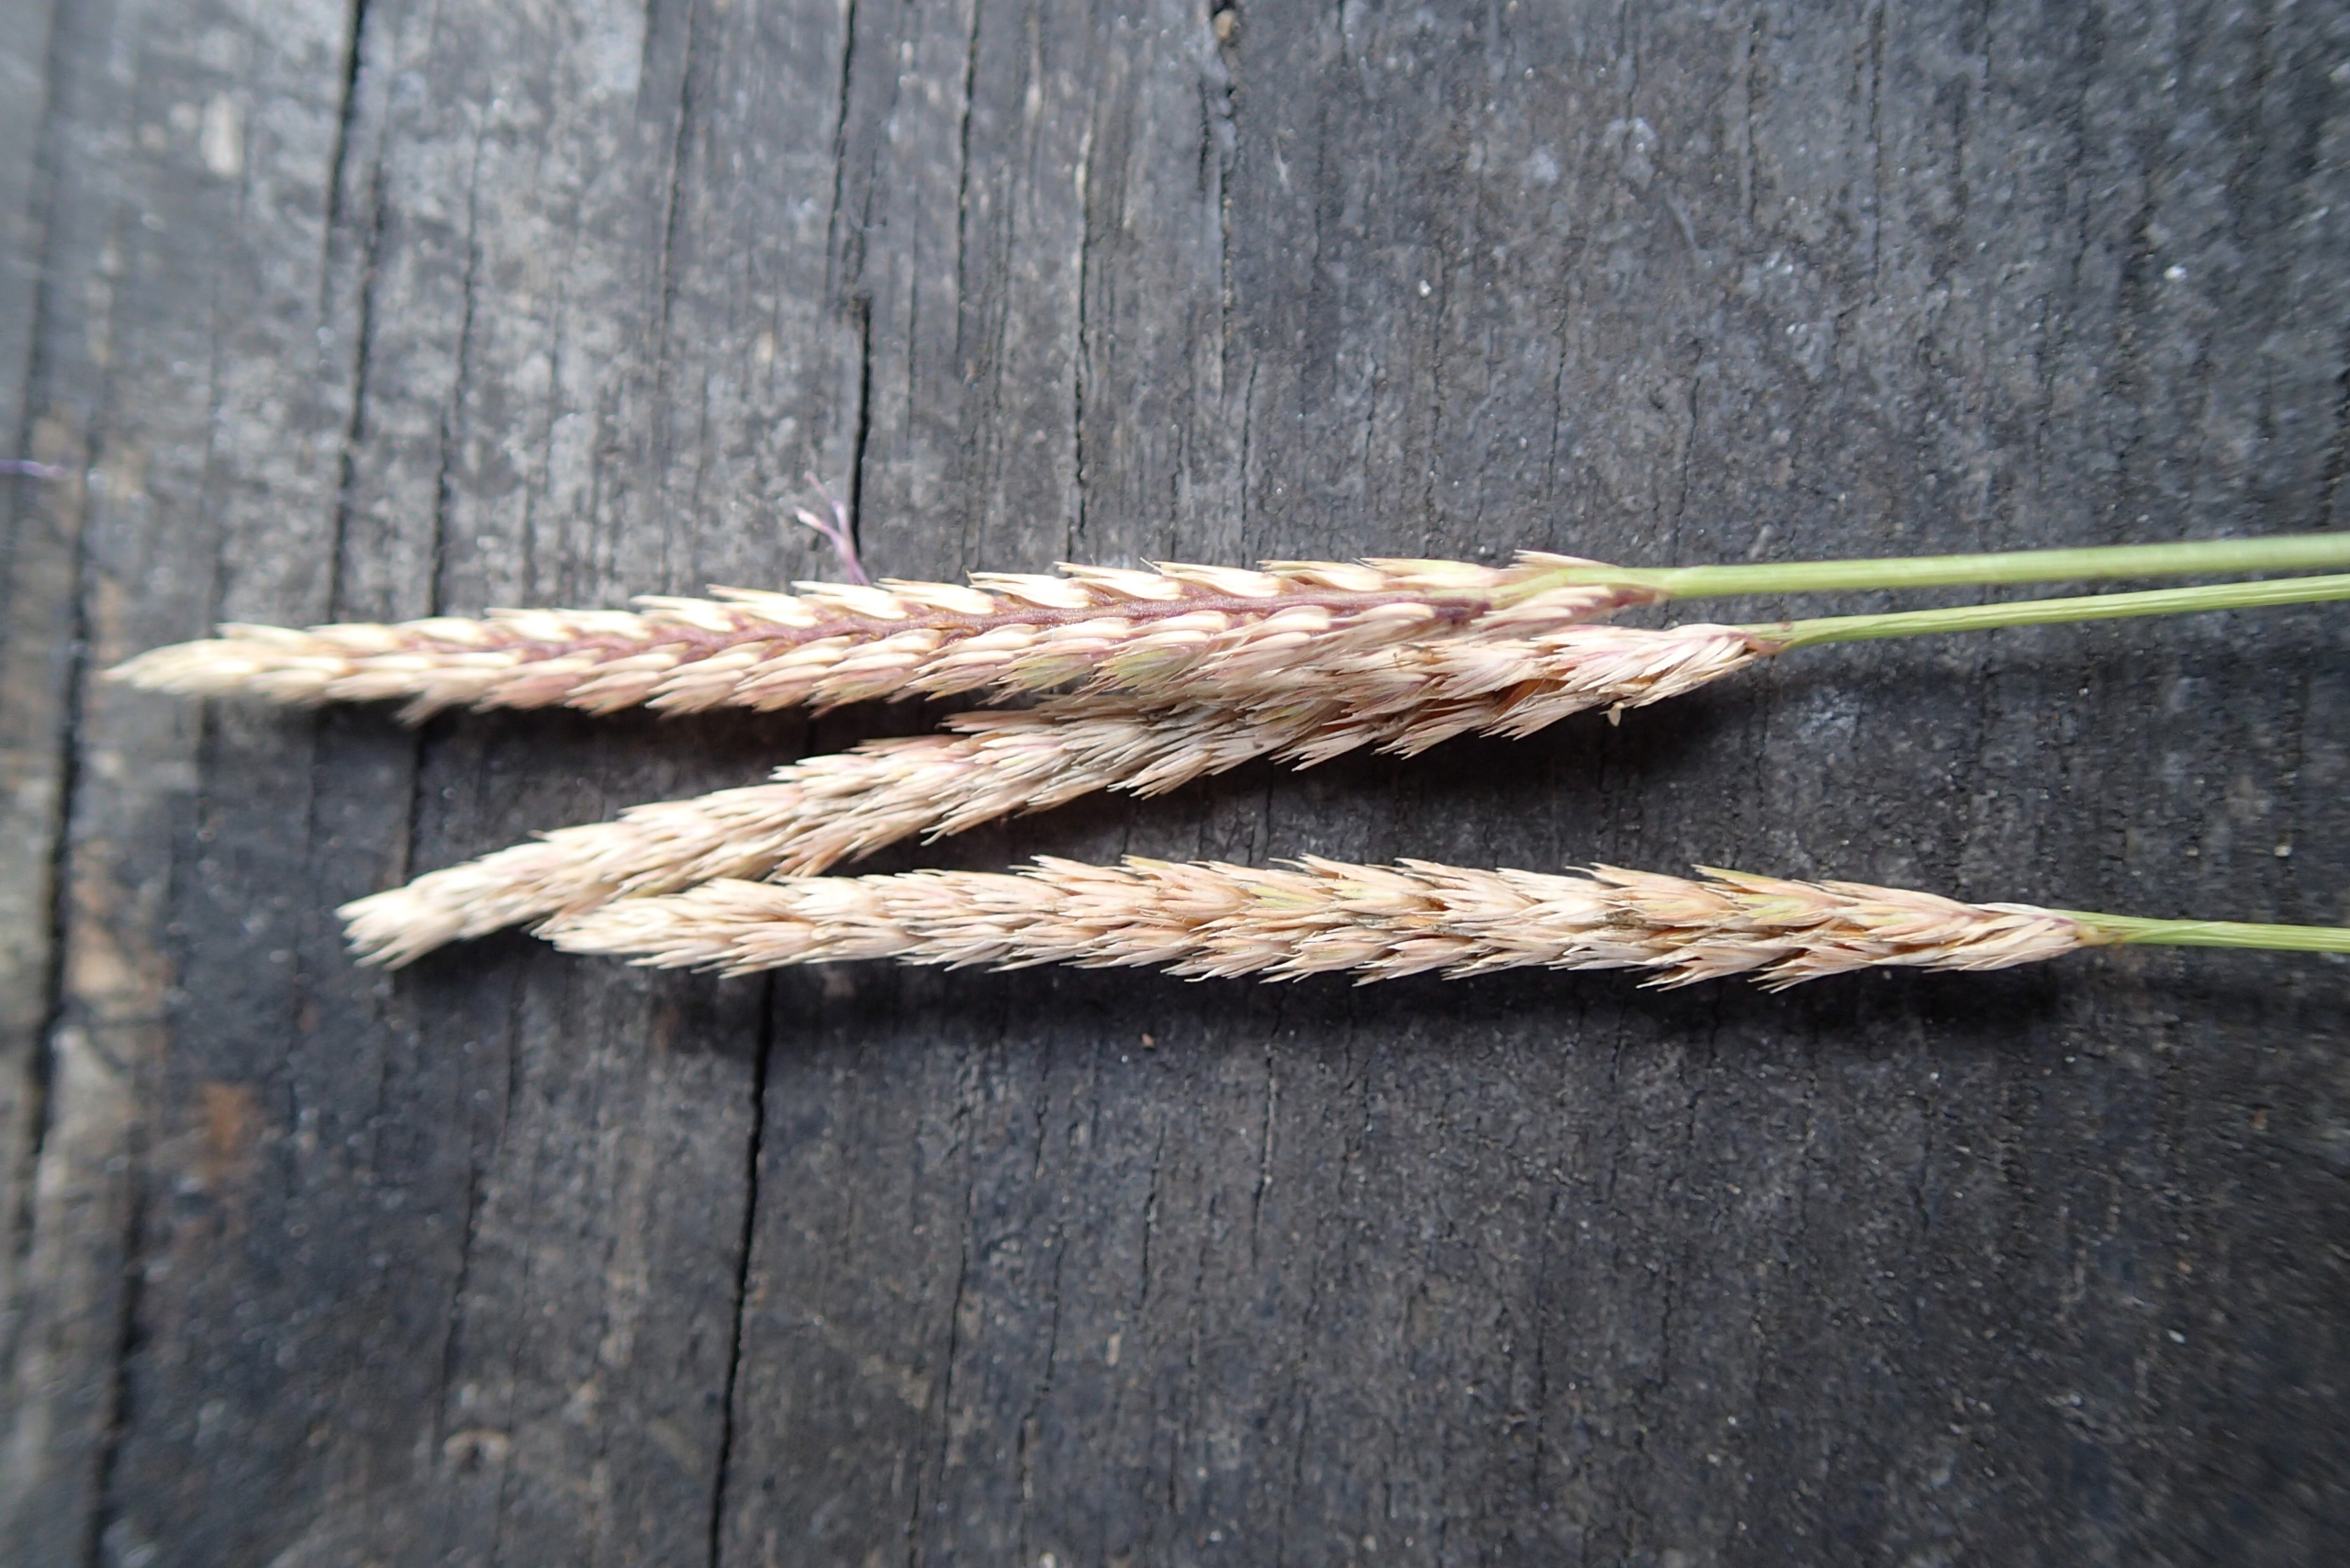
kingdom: Plantae
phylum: Tracheophyta
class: Liliopsida
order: Poales
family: Poaceae
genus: Cynosurus
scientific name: Cynosurus cristatus
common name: Kamgræs
